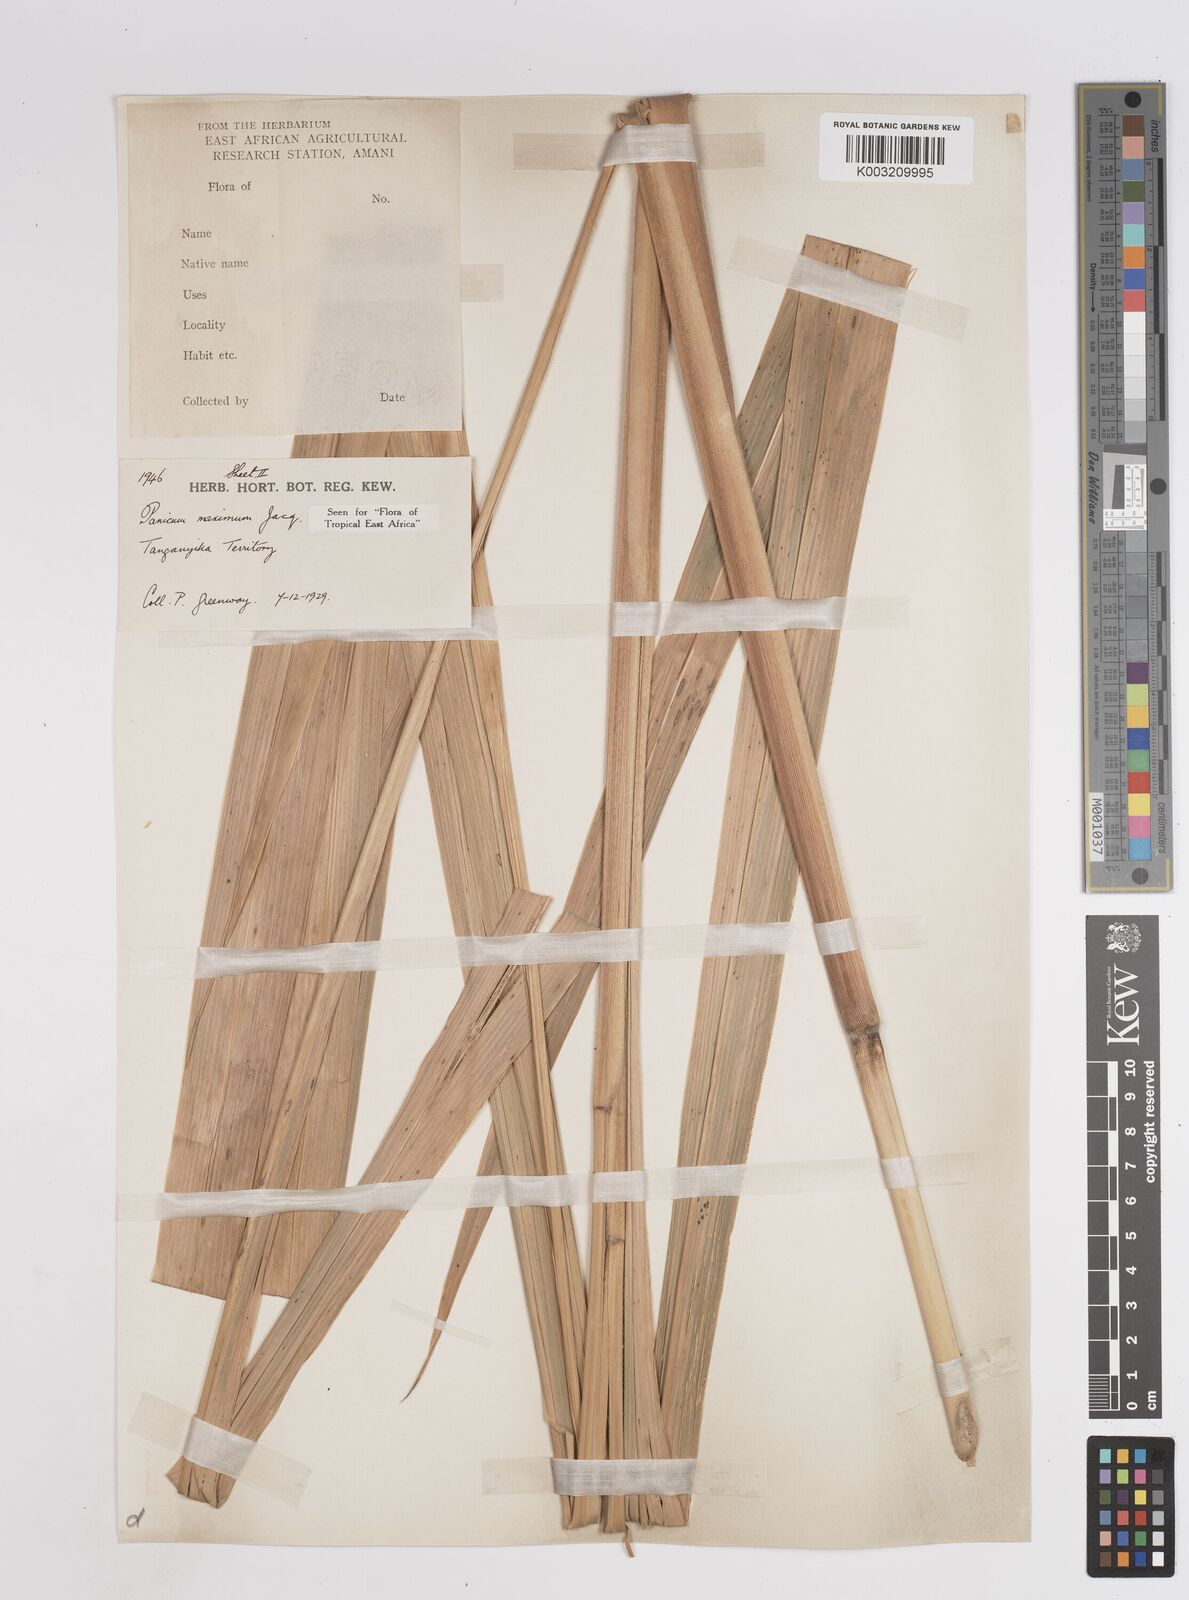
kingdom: Plantae
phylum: Tracheophyta
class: Liliopsida
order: Poales
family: Poaceae
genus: Megathyrsus
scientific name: Megathyrsus maximus
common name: Guineagrass
